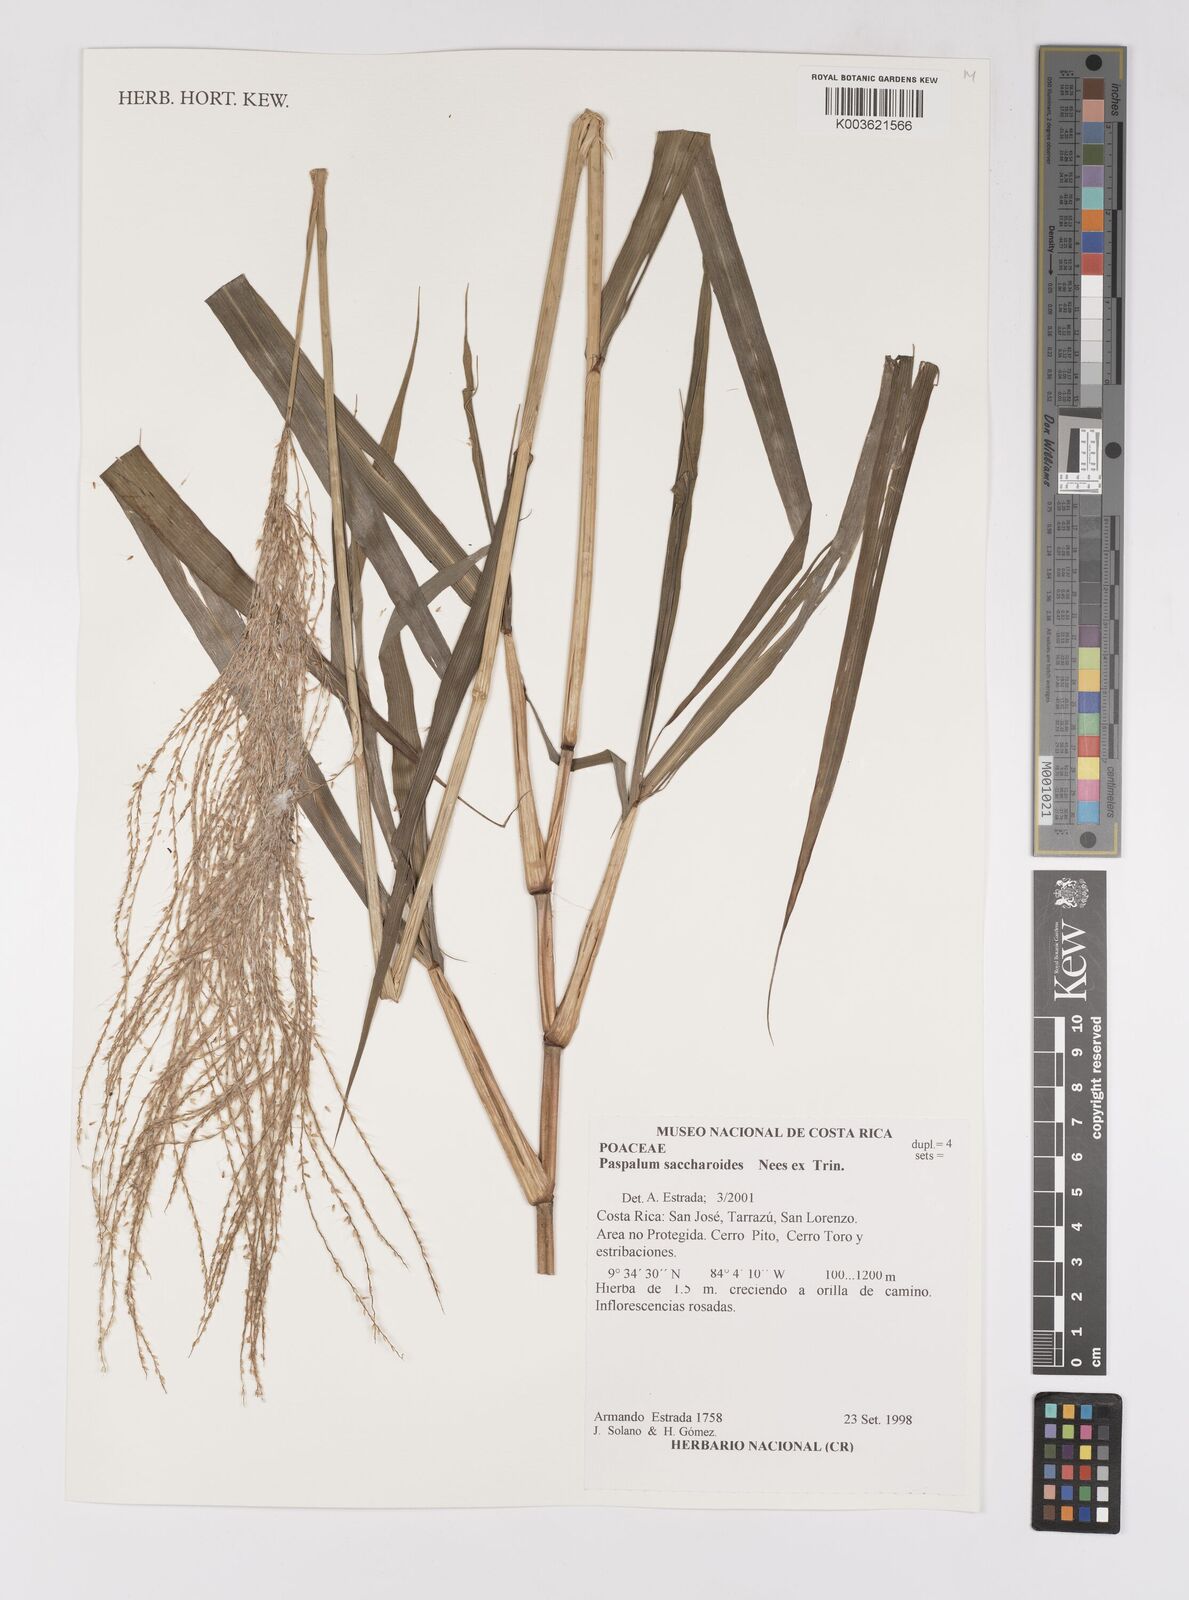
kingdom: Plantae
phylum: Tracheophyta
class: Liliopsida
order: Poales
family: Poaceae
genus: Paspalum
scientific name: Paspalum saccharoides
